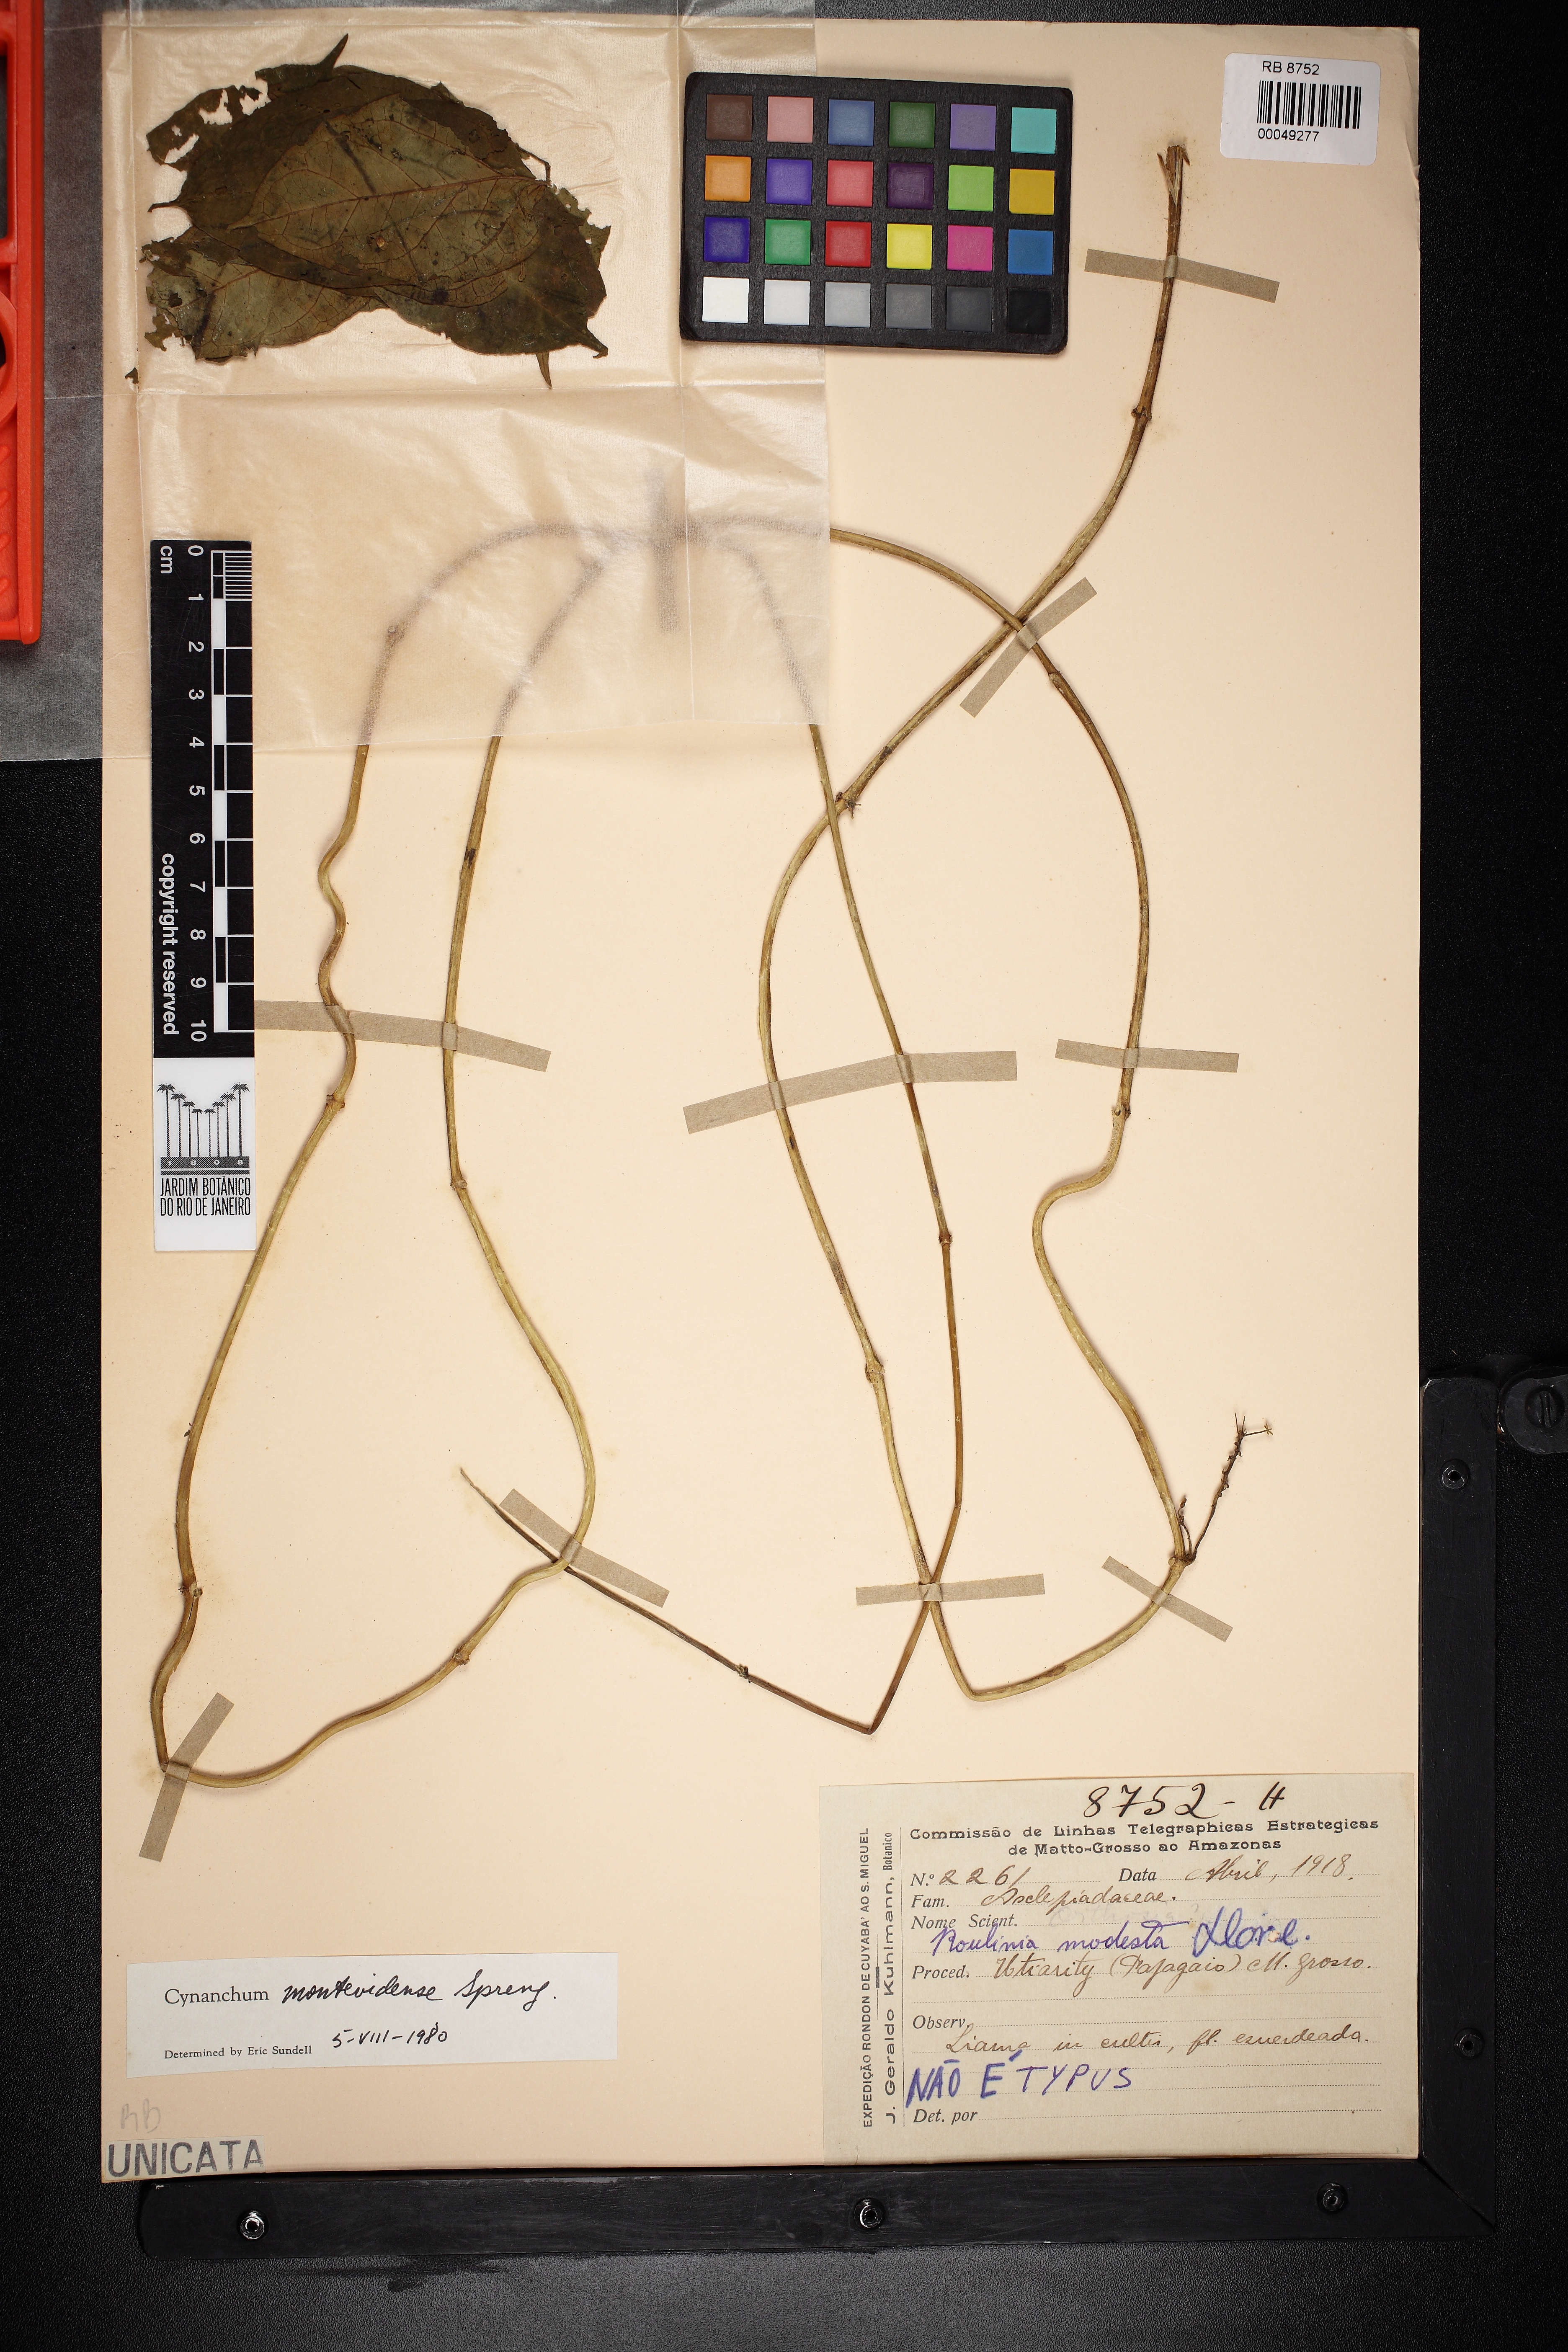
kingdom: Plantae
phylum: Tracheophyta
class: Magnoliopsida
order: Gentianales
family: Apocynaceae
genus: Cynanchum
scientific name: Cynanchum montevidense
